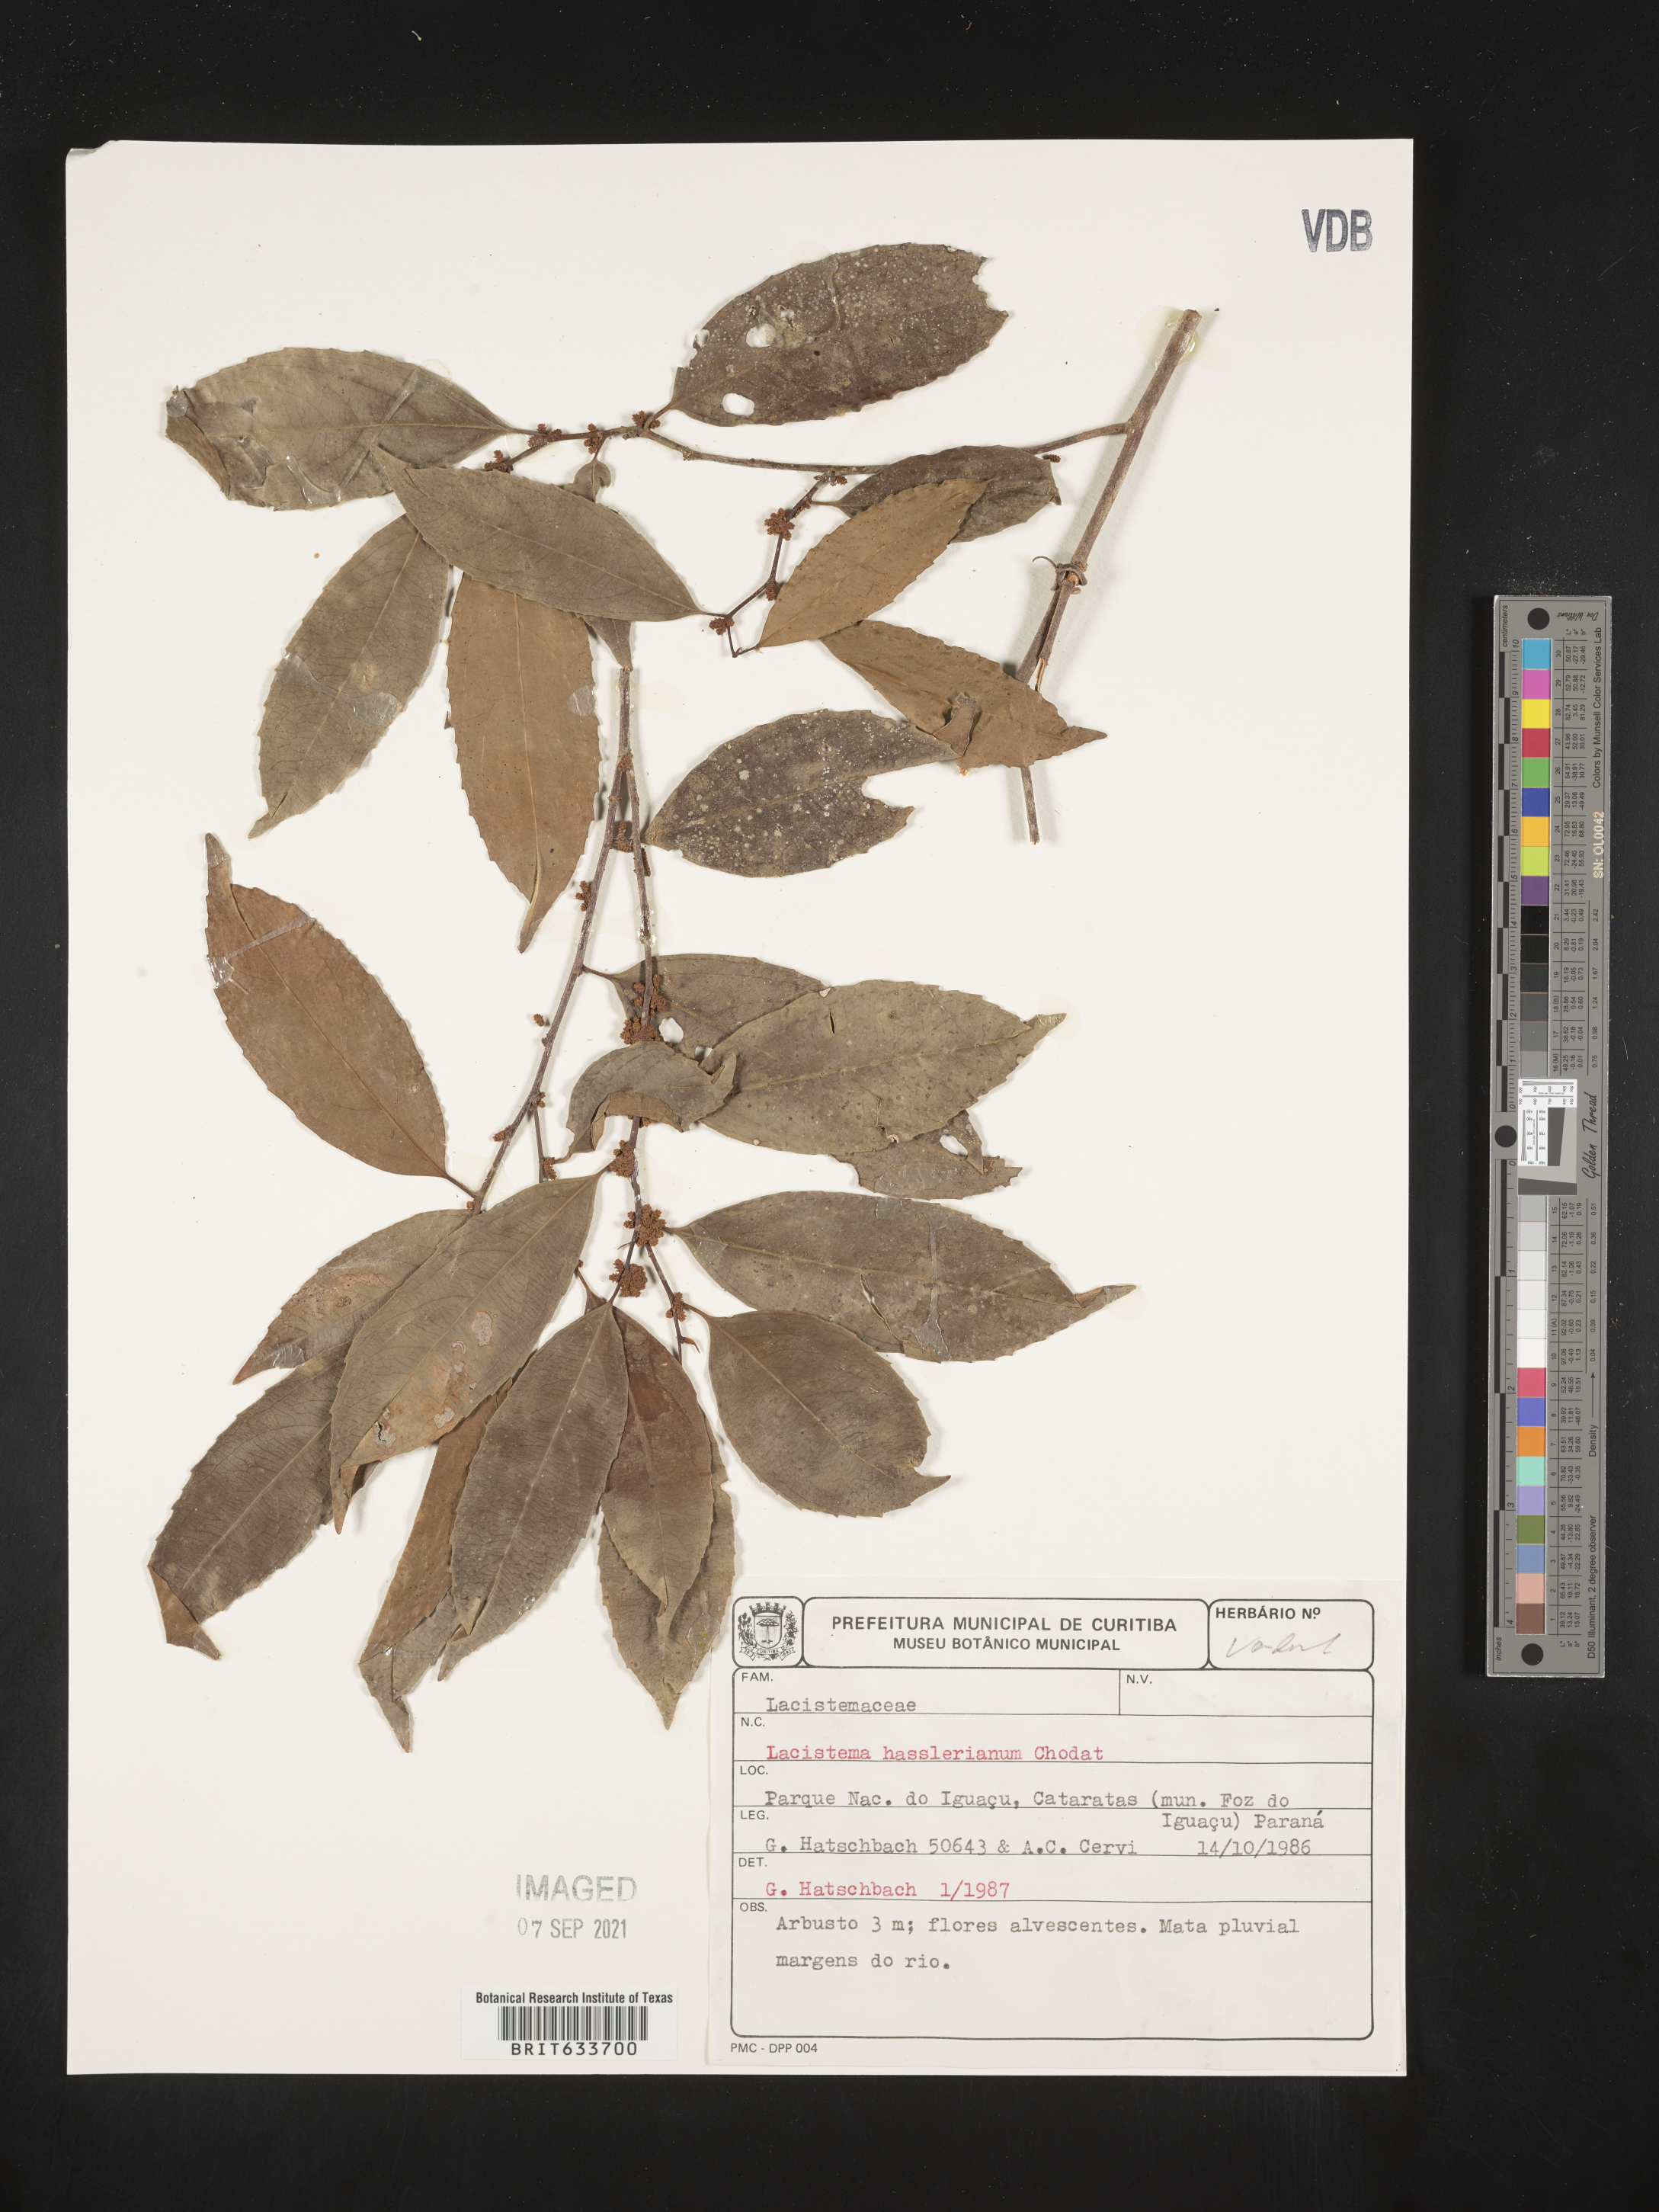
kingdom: Plantae
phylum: Tracheophyta
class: Magnoliopsida
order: Malpighiales
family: Lacistemataceae
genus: Lacistema
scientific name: Lacistema
